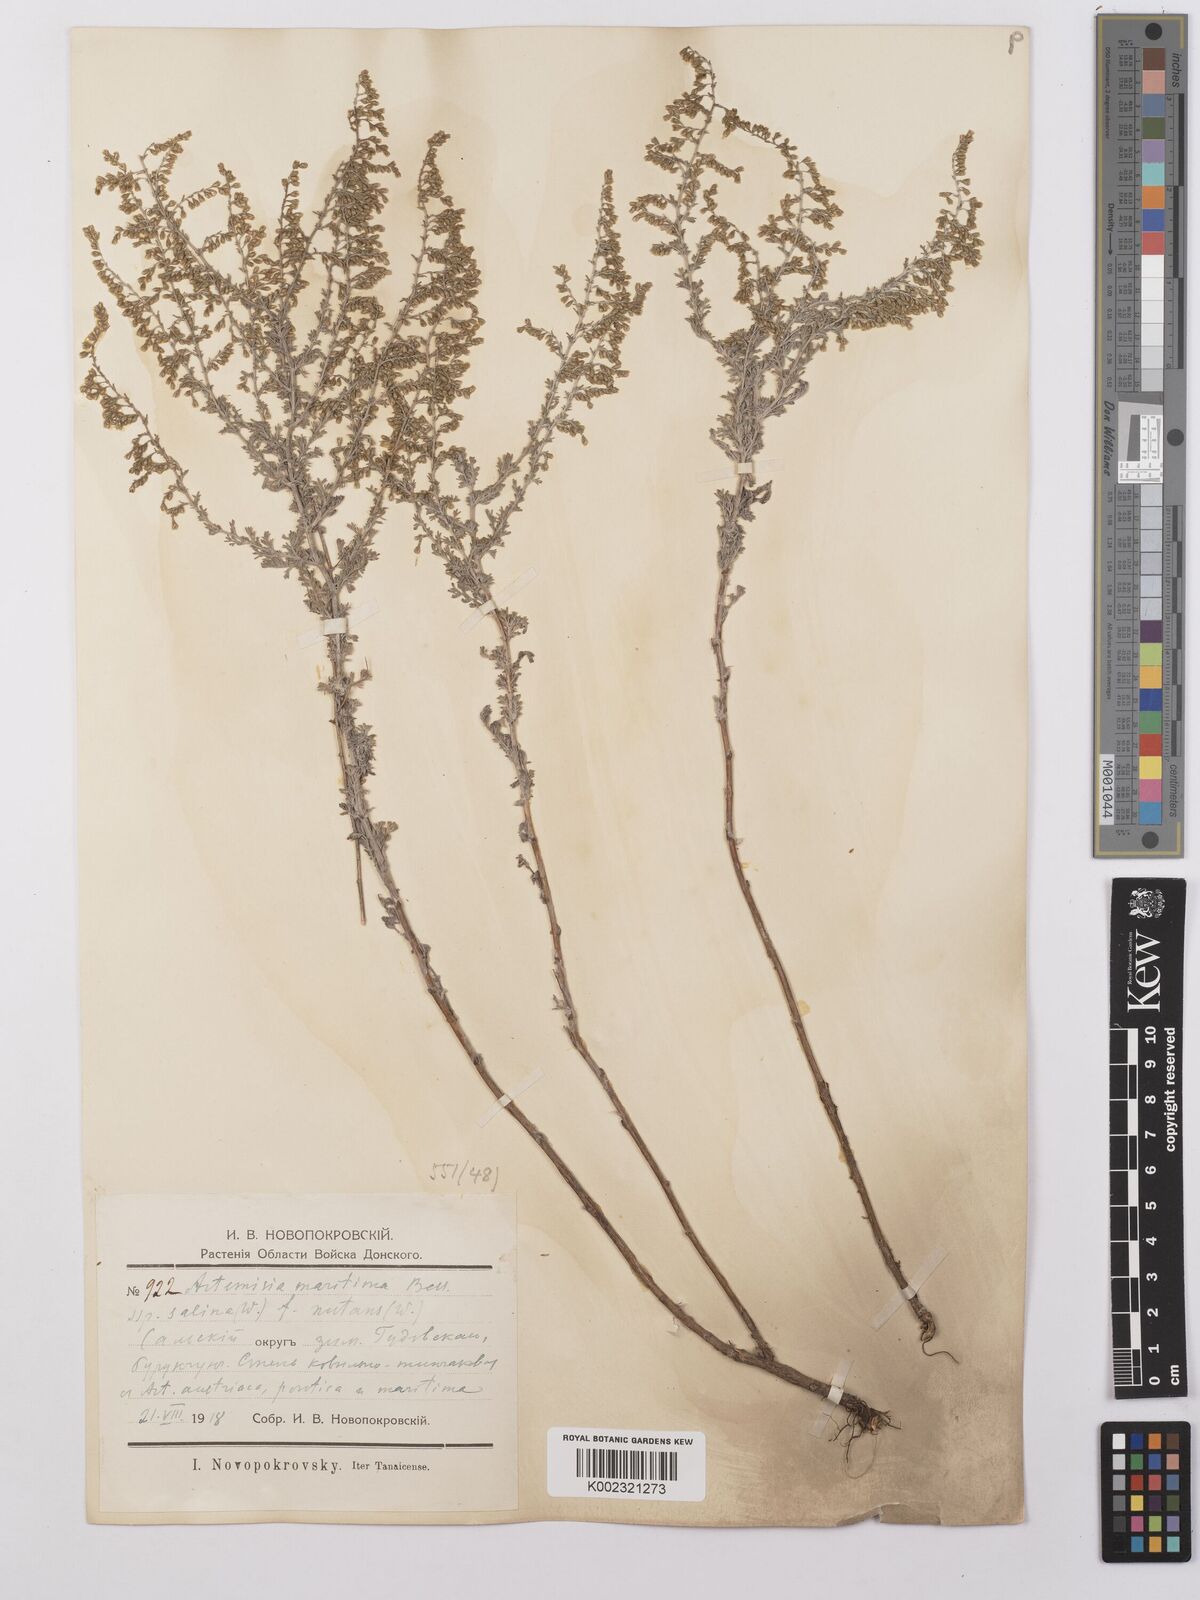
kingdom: Plantae
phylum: Tracheophyta
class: Magnoliopsida
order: Asterales
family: Asteraceae
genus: Artemisia
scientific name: Artemisia nutans
